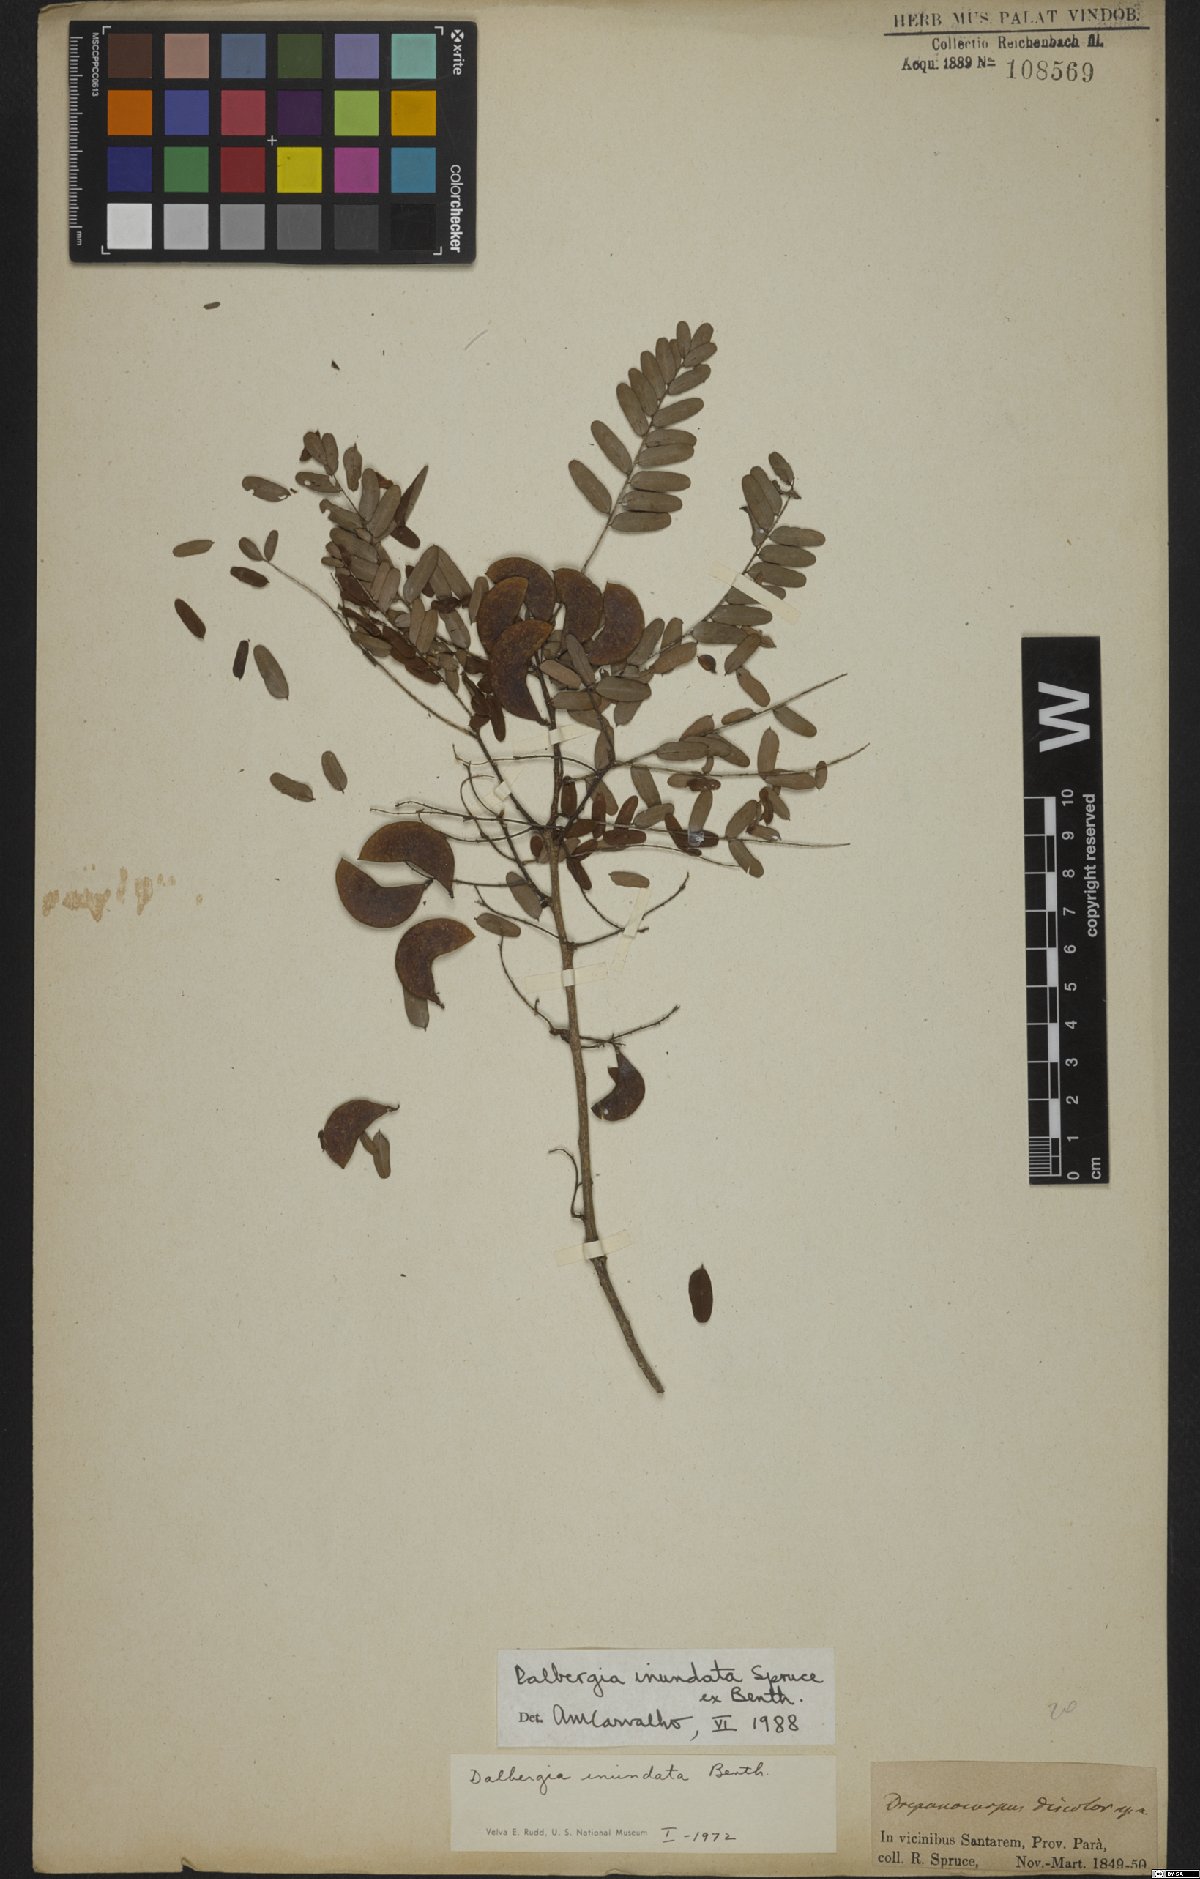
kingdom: Plantae
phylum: Tracheophyta
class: Magnoliopsida
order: Fabales
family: Fabaceae
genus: Dalbergia
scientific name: Dalbergia inundata
